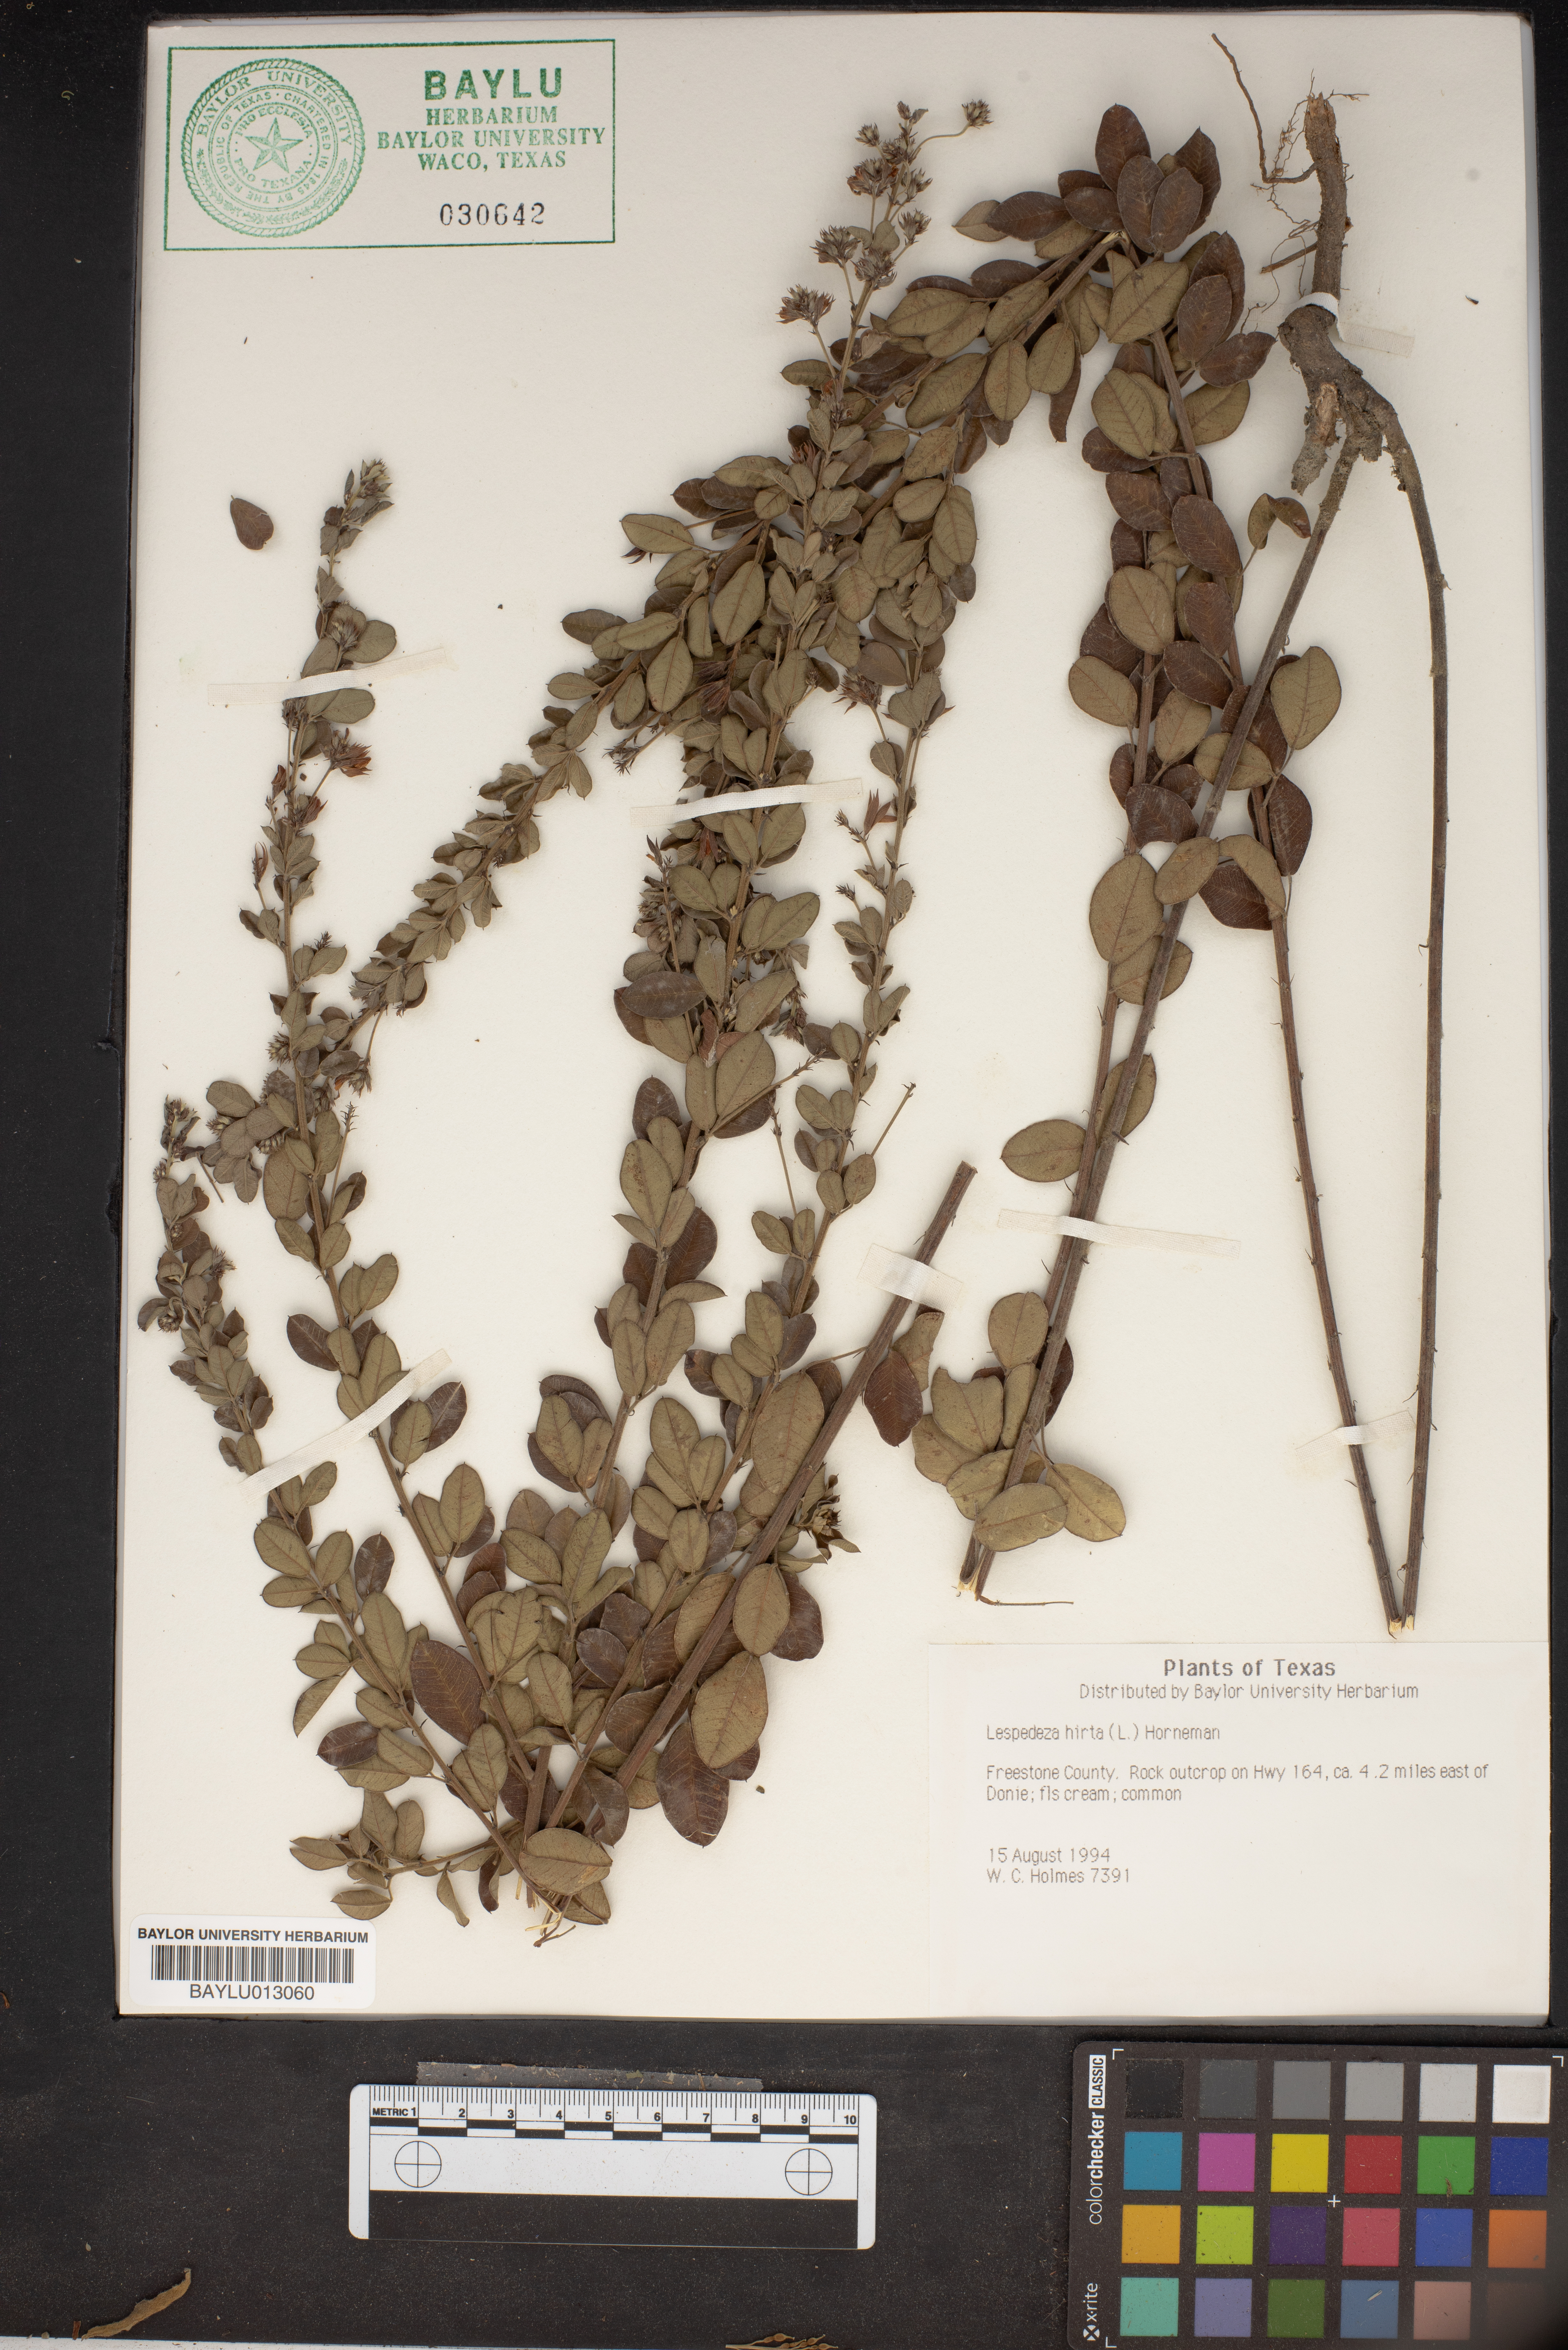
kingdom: Plantae
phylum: Tracheophyta
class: Magnoliopsida
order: Fabales
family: Fabaceae
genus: Lespedeza
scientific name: Lespedeza hirta
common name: Hairy lespedeza
